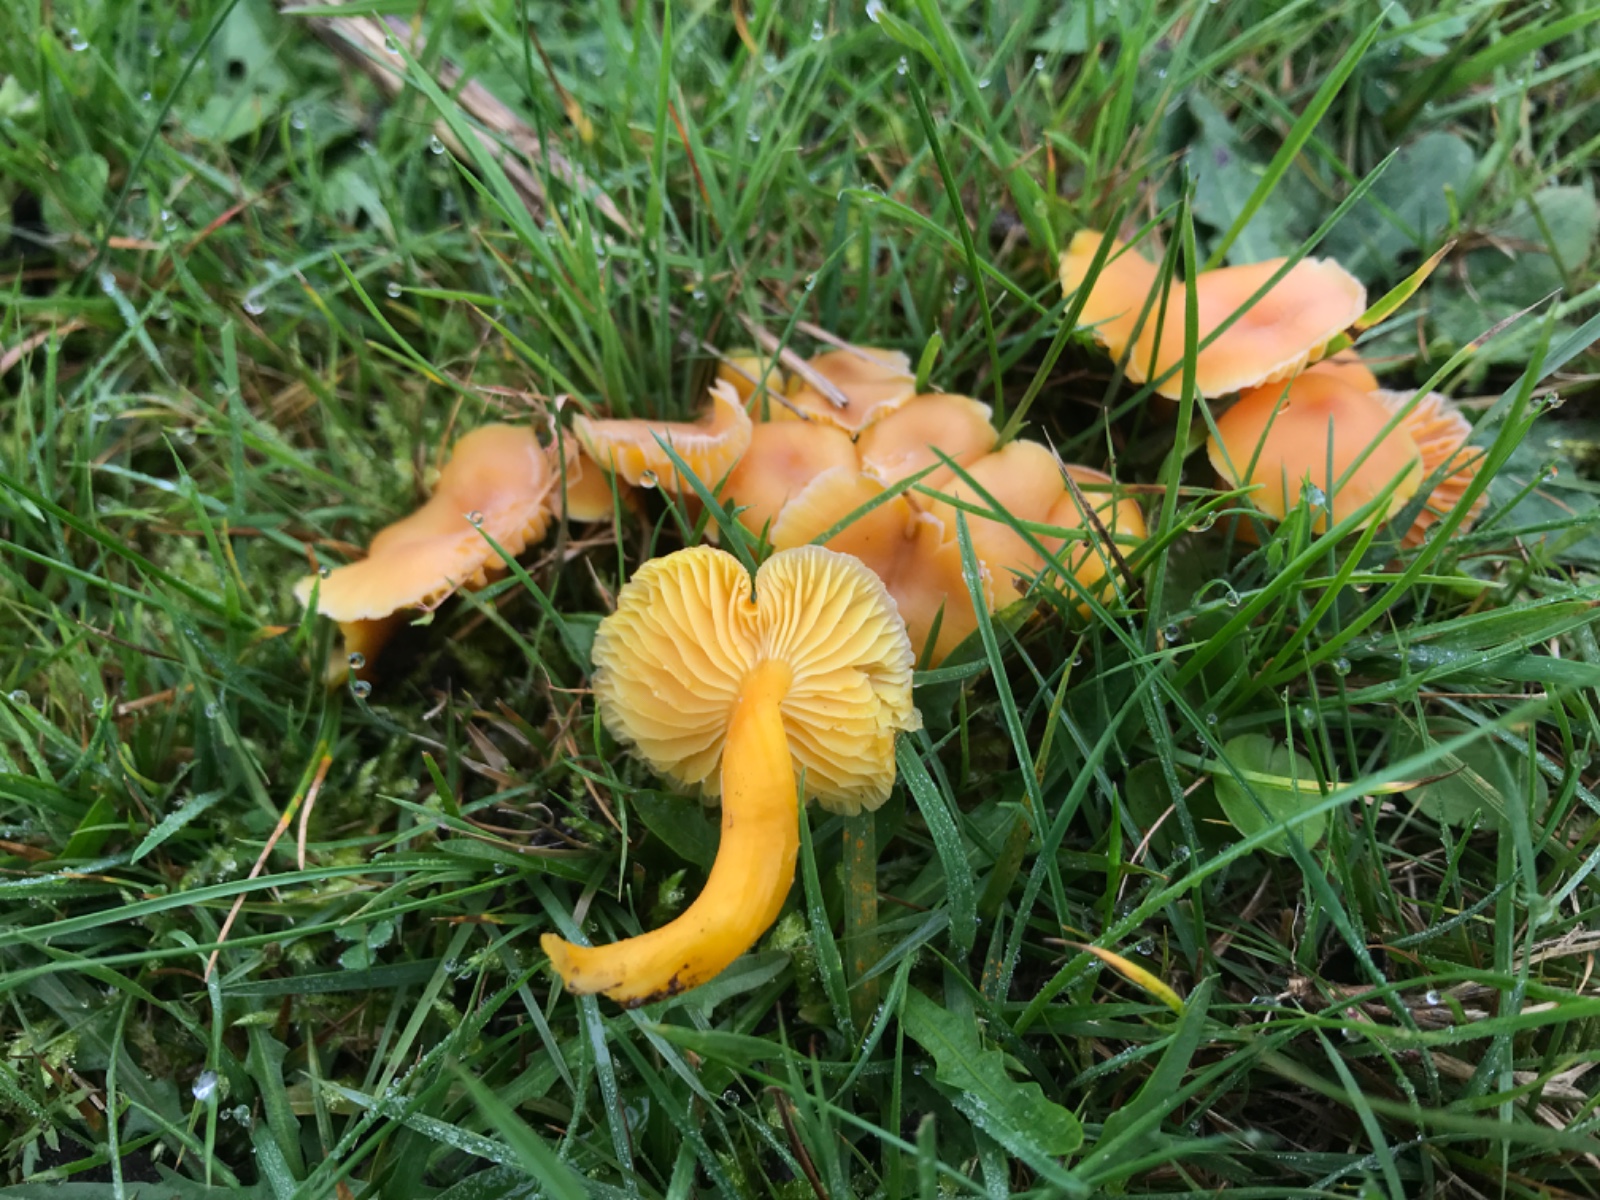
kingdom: Fungi
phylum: Basidiomycota
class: Agaricomycetes
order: Agaricales
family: Hygrophoraceae
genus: Hygrocybe
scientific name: Hygrocybe reidii
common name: honning-vokshat
